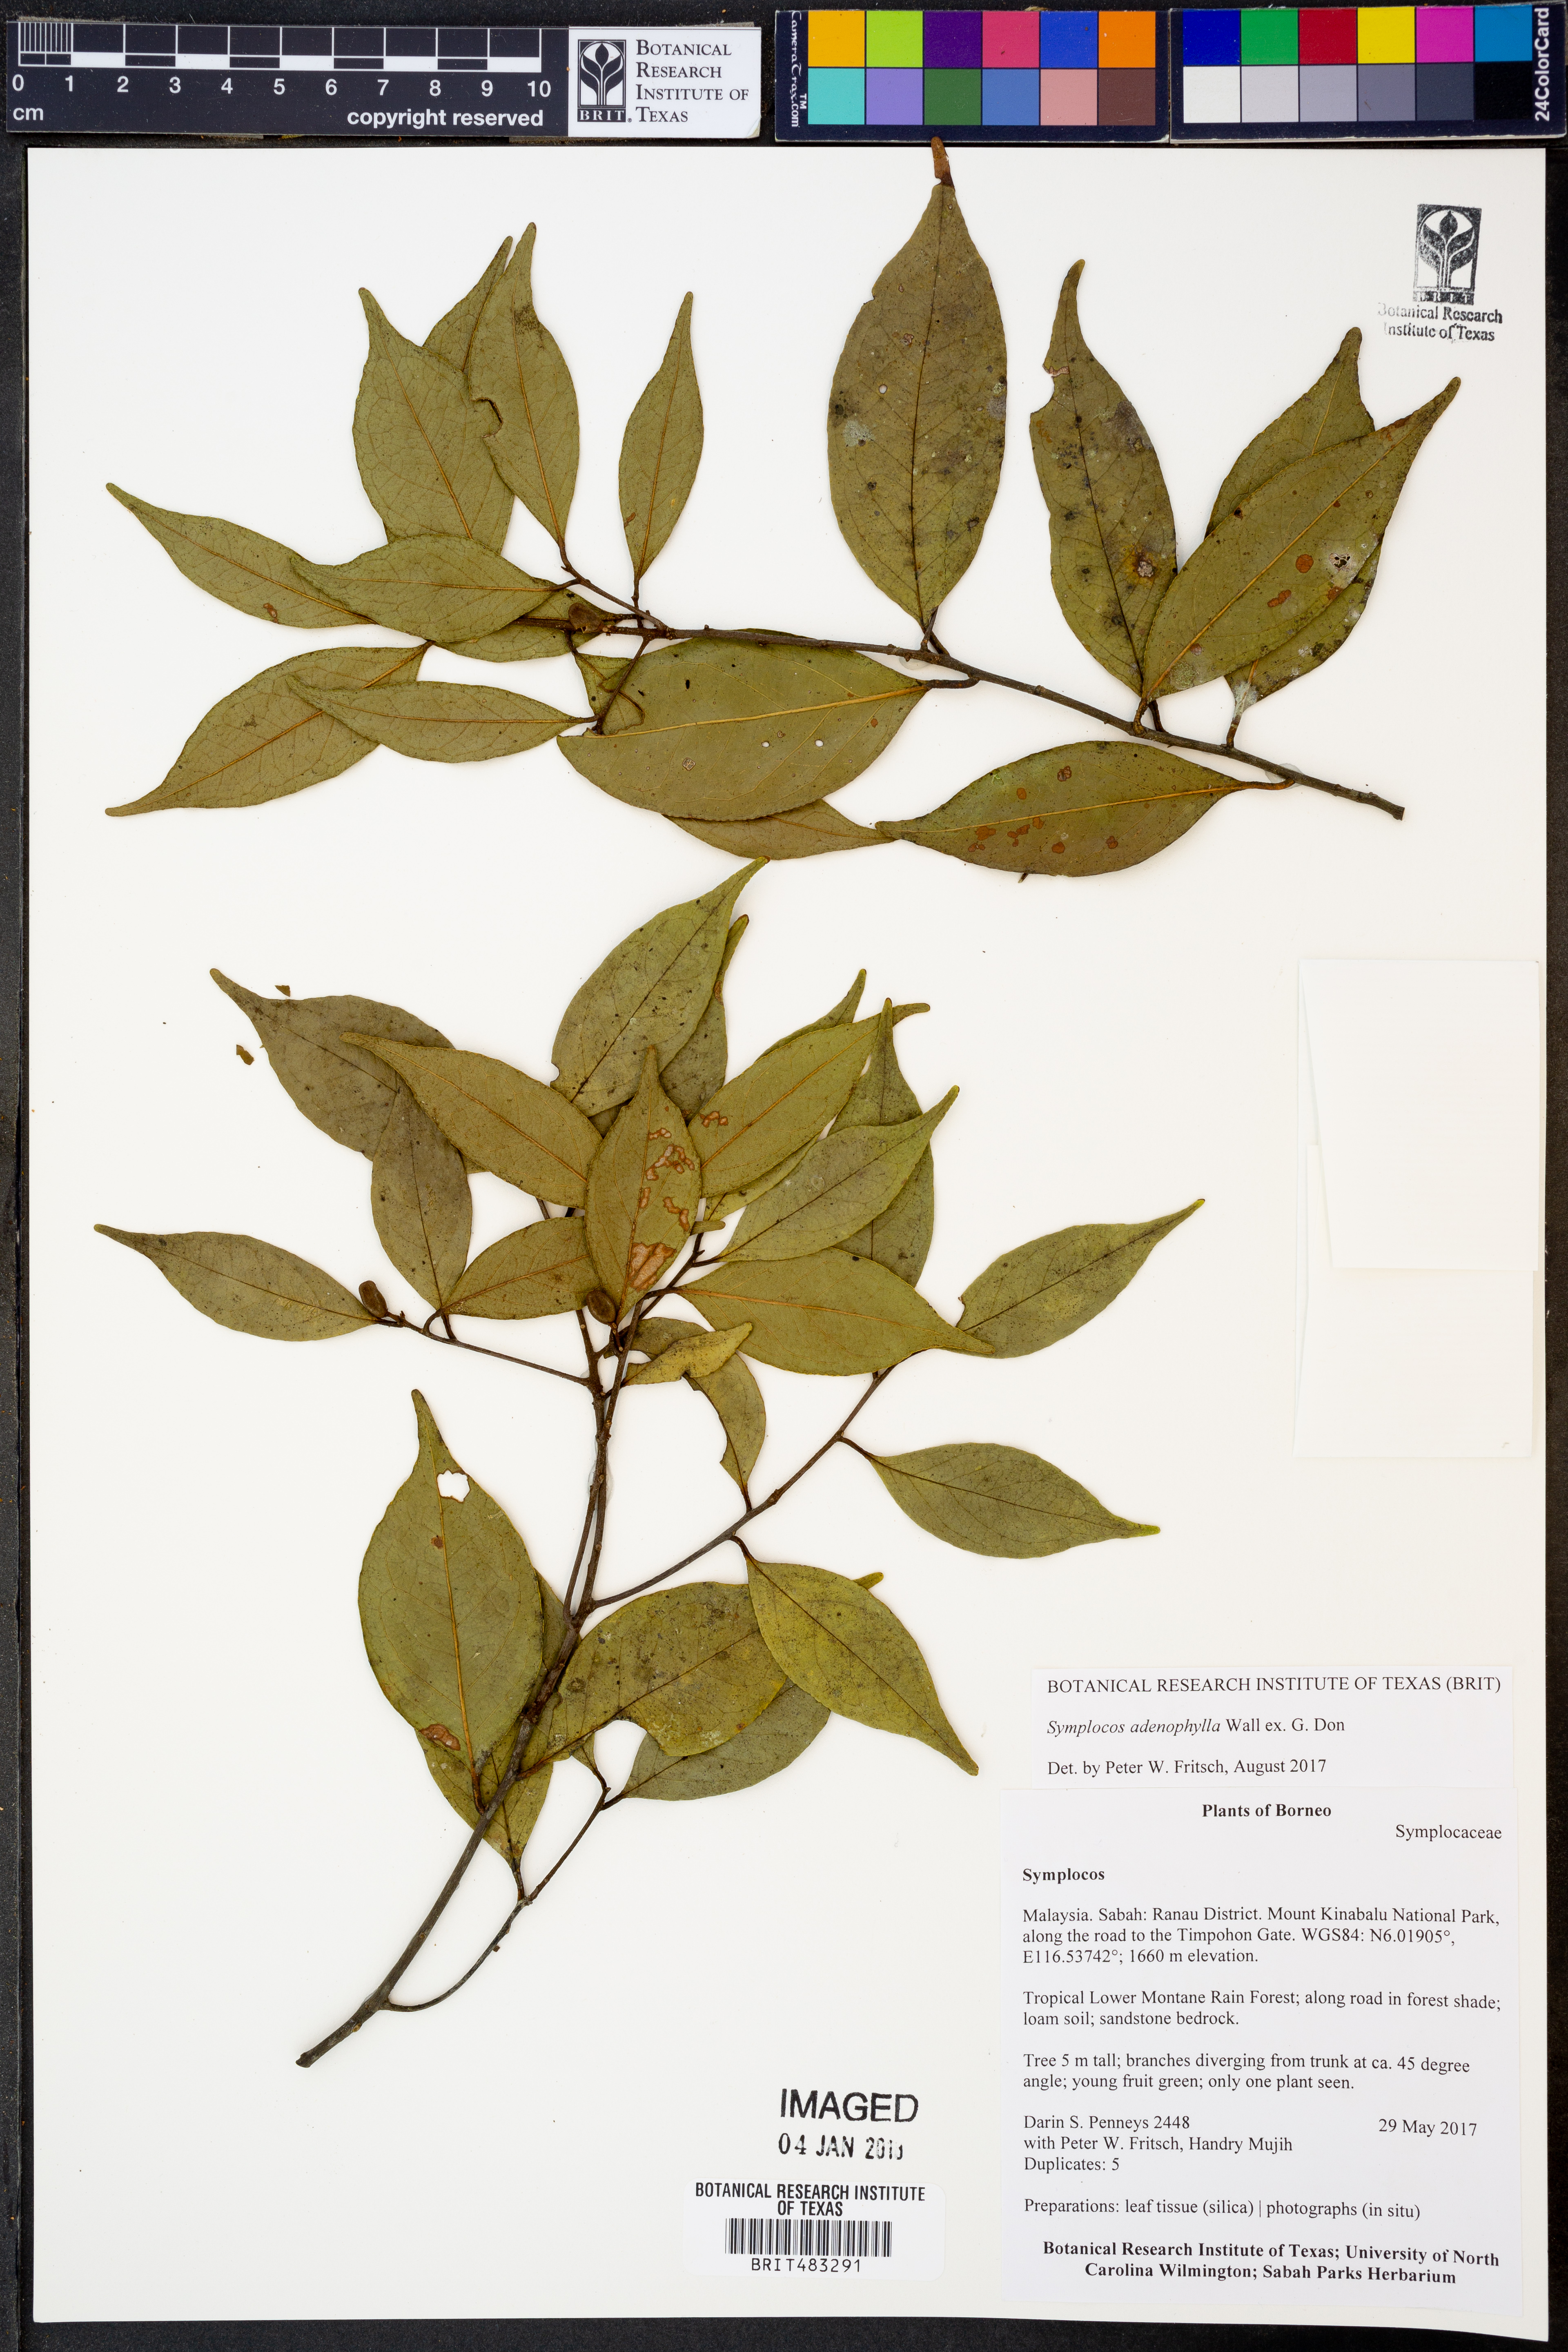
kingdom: Plantae
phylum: Tracheophyta
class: Magnoliopsida
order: Ericales
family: Symplocaceae
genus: Symplocos
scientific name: Symplocos adenophylla
